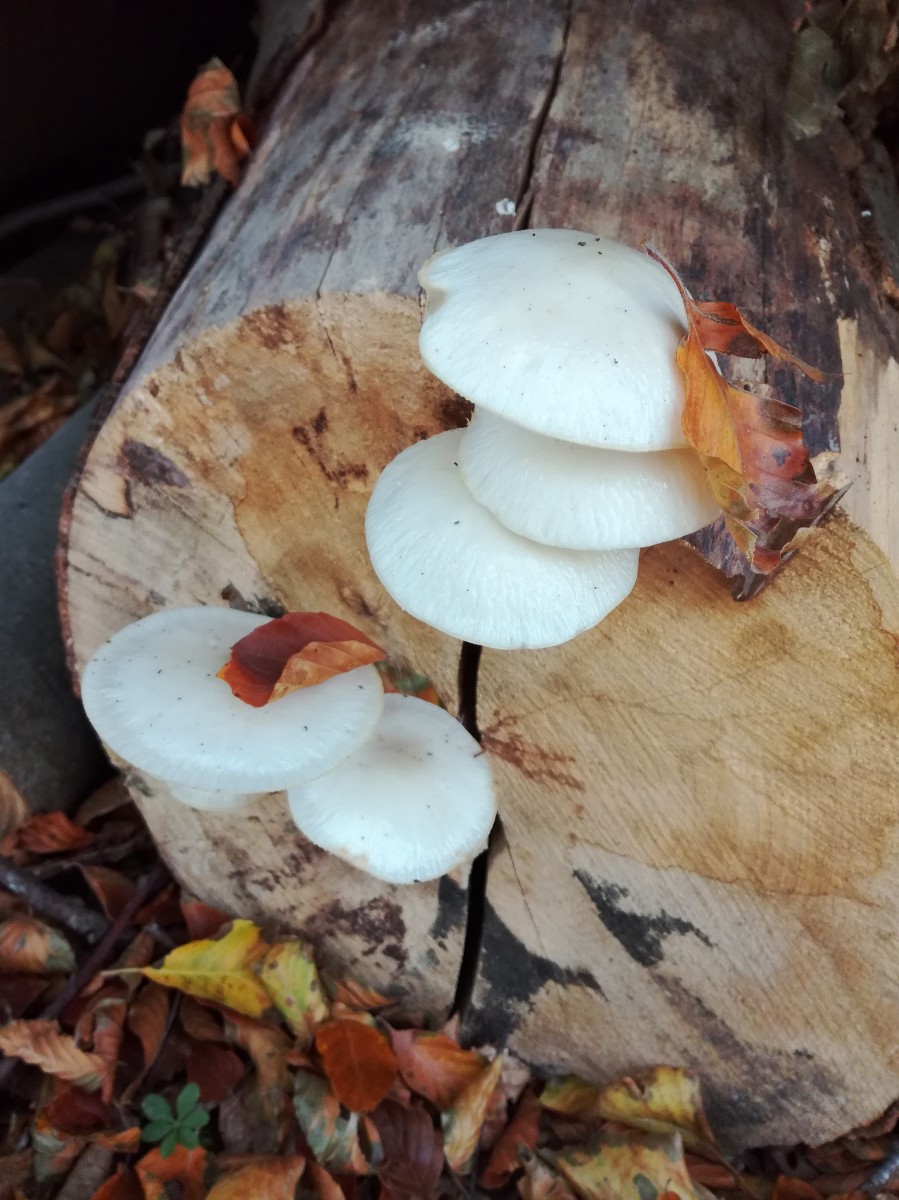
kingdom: Fungi
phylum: Basidiomycota
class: Agaricomycetes
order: Agaricales
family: Physalacriaceae
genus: Mucidula
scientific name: Mucidula mucida
